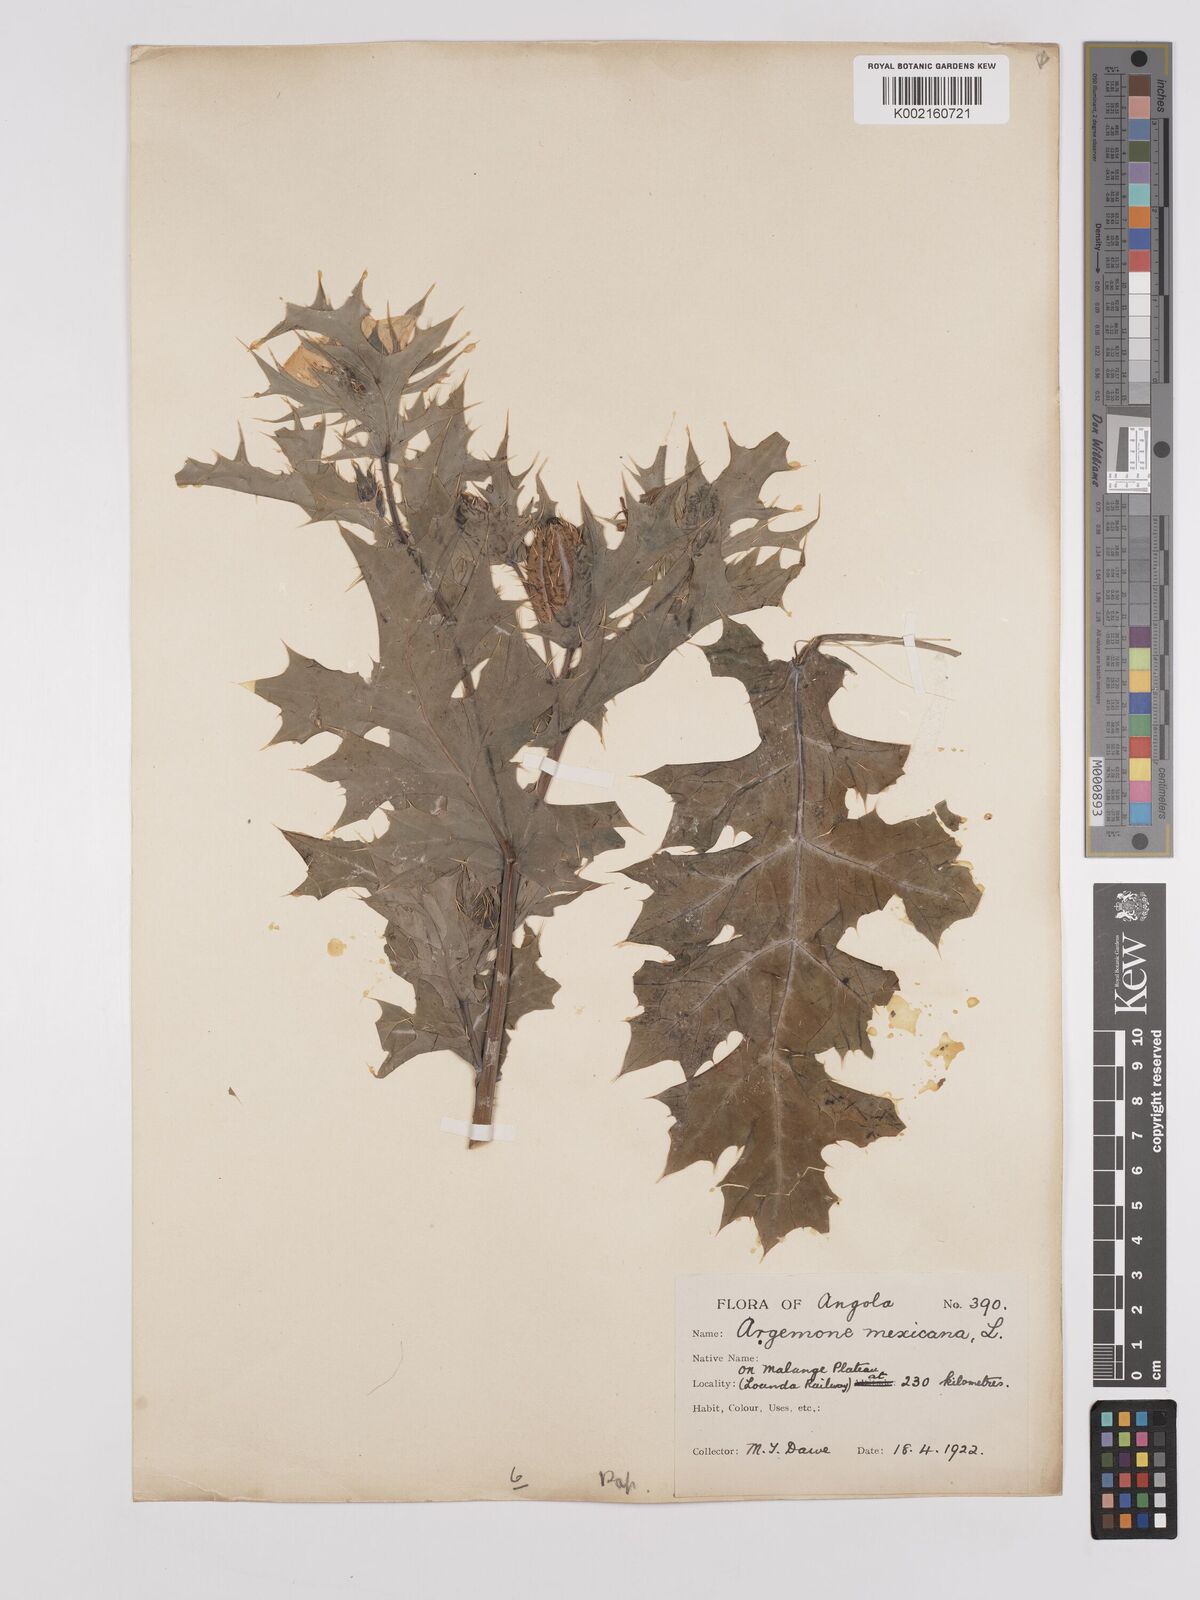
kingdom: Plantae
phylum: Tracheophyta
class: Magnoliopsida
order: Ranunculales
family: Papaveraceae
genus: Argemone
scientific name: Argemone mexicana
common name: Mexican poppy
